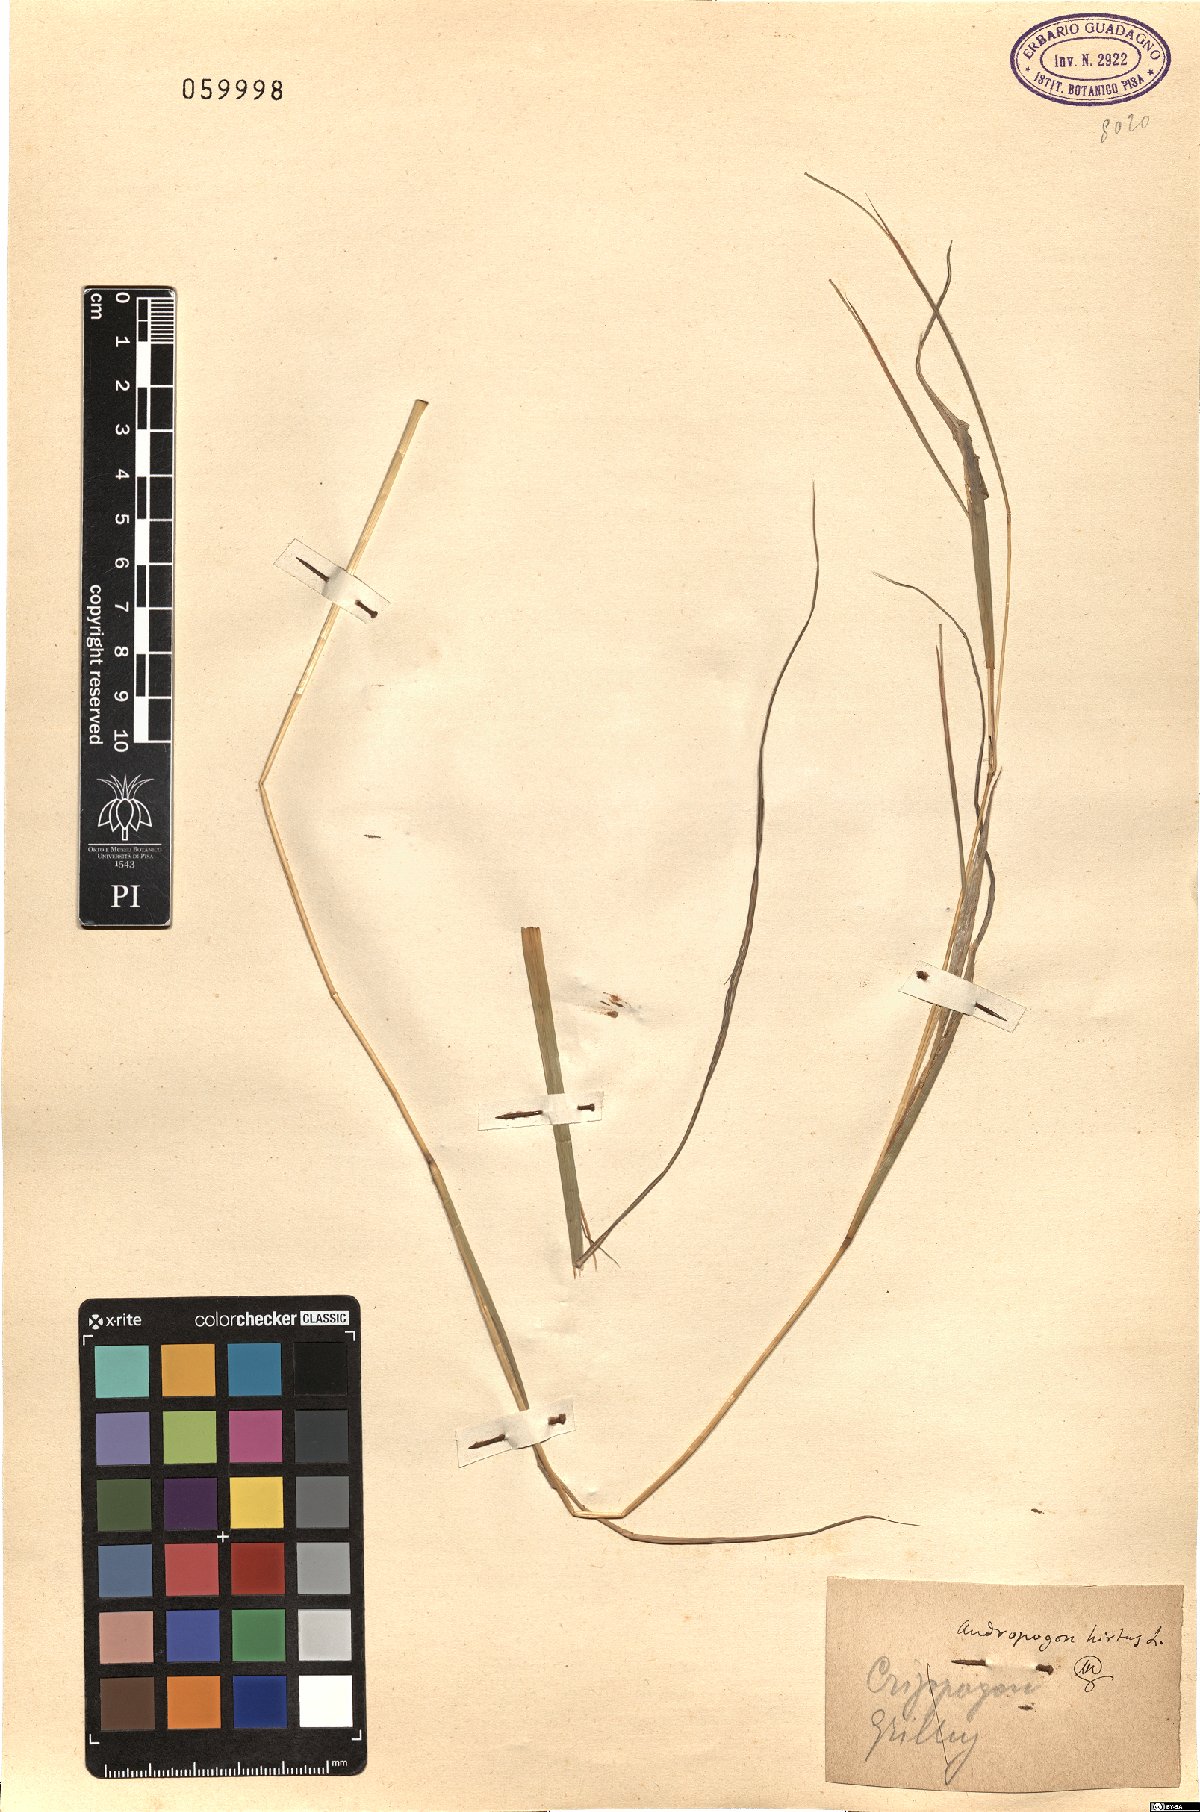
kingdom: Plantae
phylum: Tracheophyta
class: Liliopsida
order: Poales
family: Poaceae
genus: Hyparrhenia
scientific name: Hyparrhenia hirta
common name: Thatching grass
